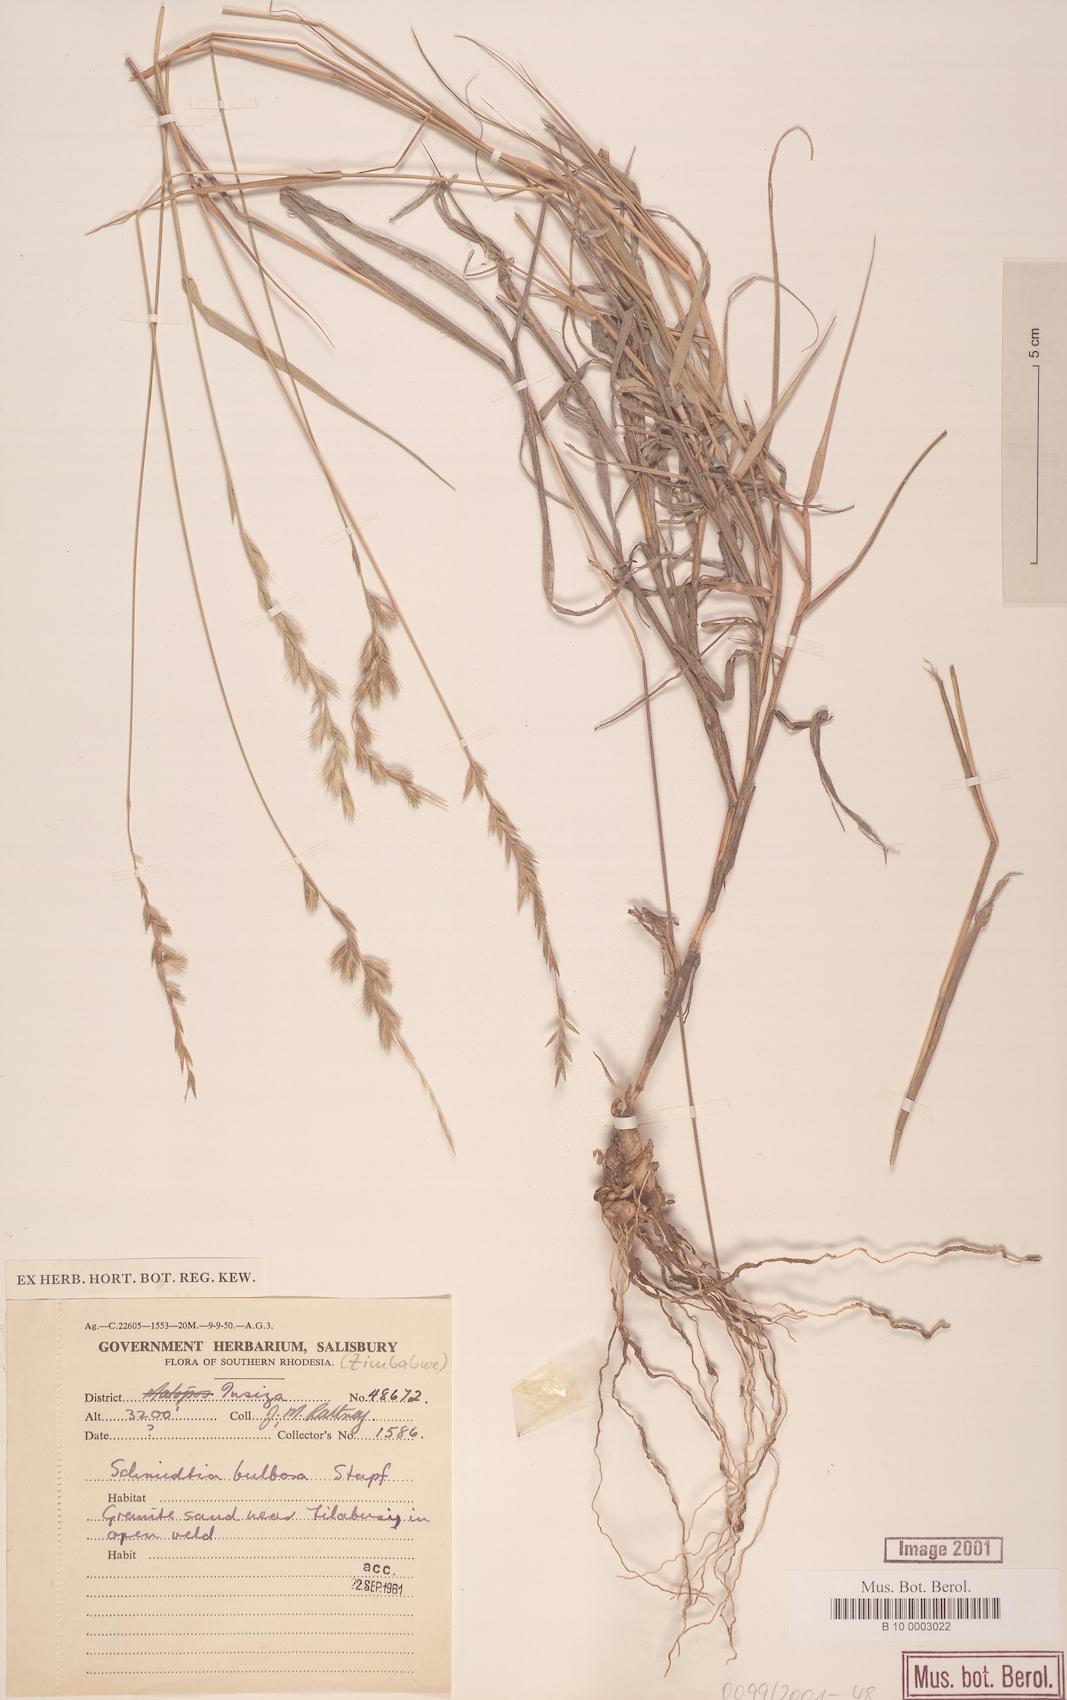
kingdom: Plantae
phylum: Tracheophyta
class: Liliopsida
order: Poales
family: Poaceae
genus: Schmidtia
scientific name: Schmidtia pappophoroides
